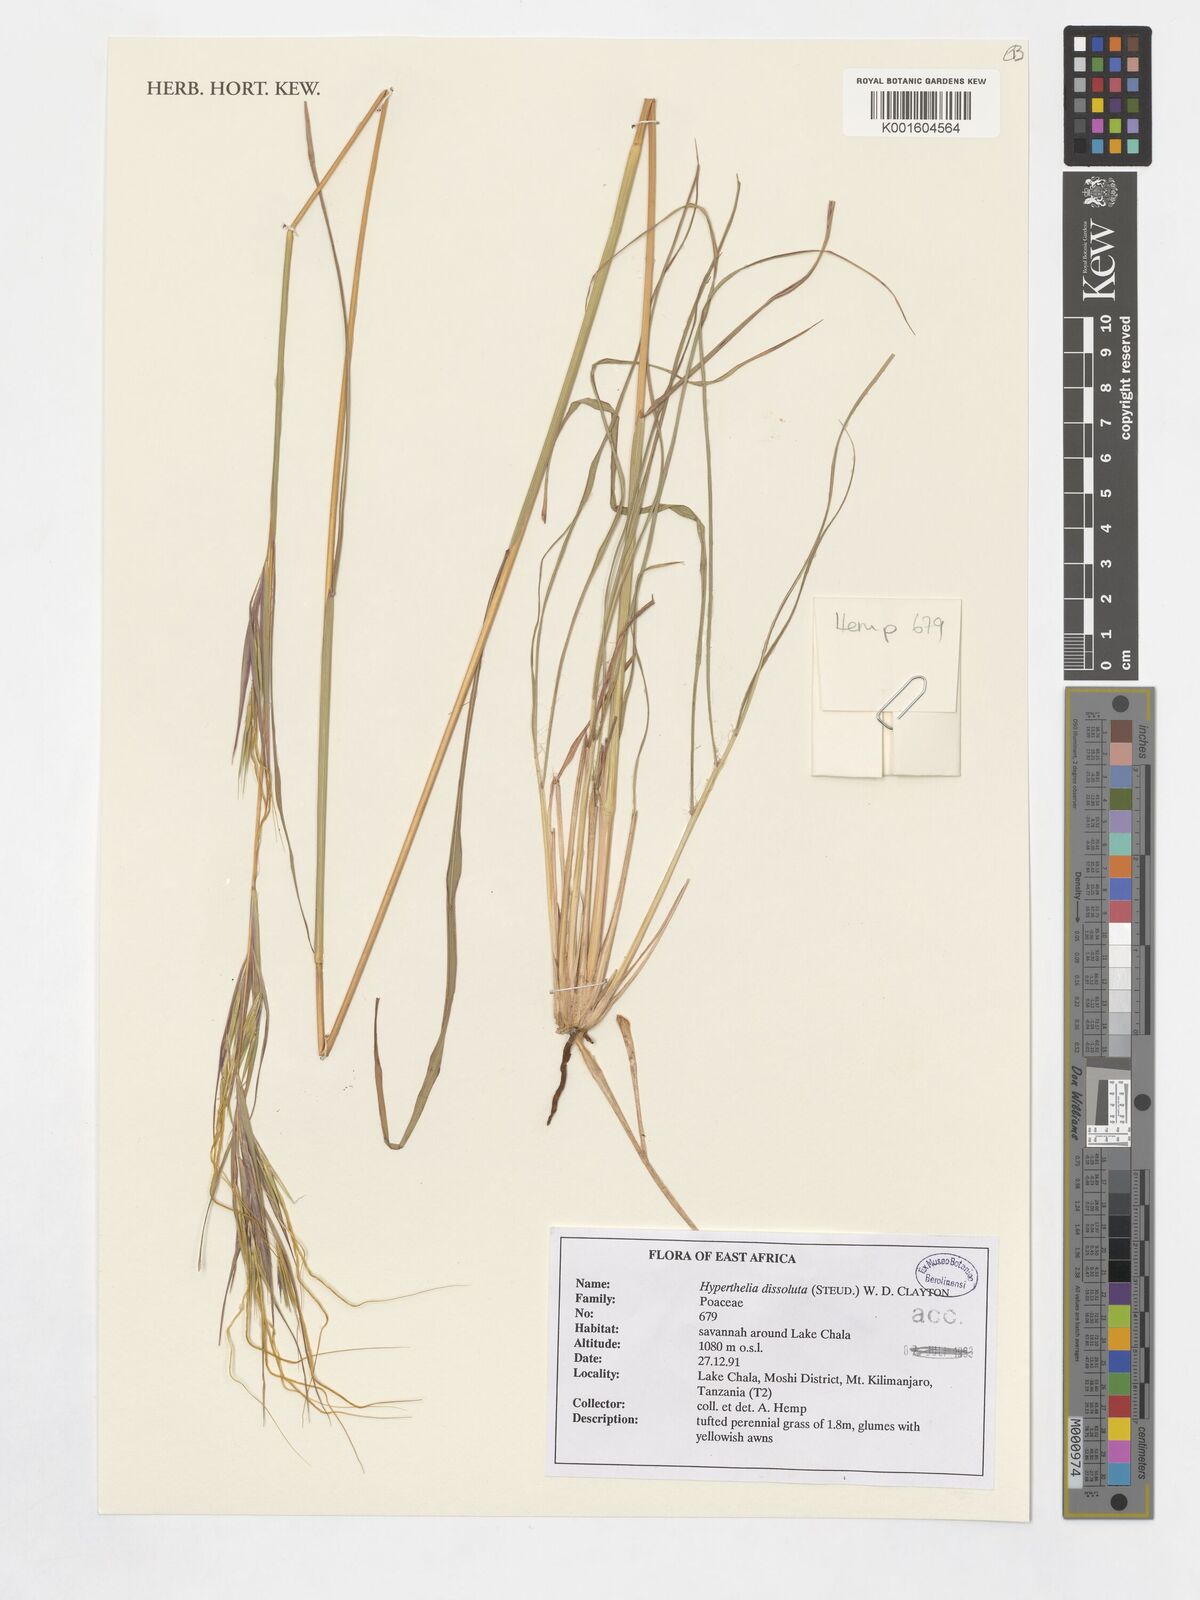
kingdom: Plantae
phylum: Tracheophyta
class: Liliopsida
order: Poales
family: Poaceae
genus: Hyperthelia
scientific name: Hyperthelia dissoluta
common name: Yellow thatching grass
